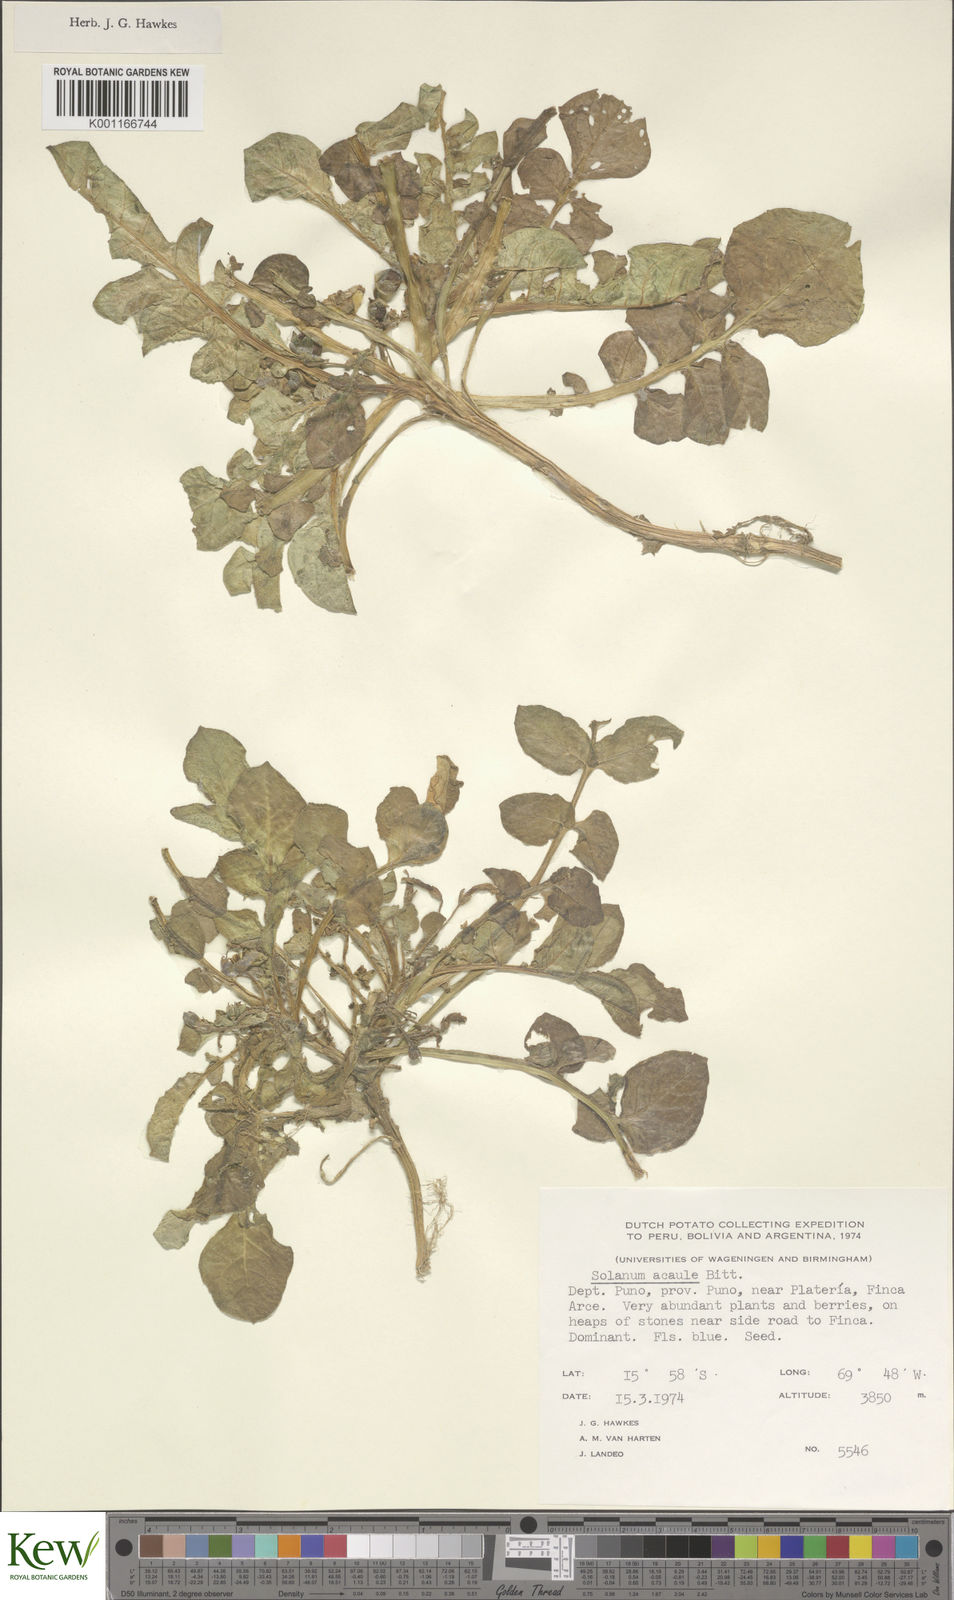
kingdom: Plantae
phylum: Tracheophyta
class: Magnoliopsida
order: Solanales
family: Solanaceae
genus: Solanum
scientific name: Solanum acaule
